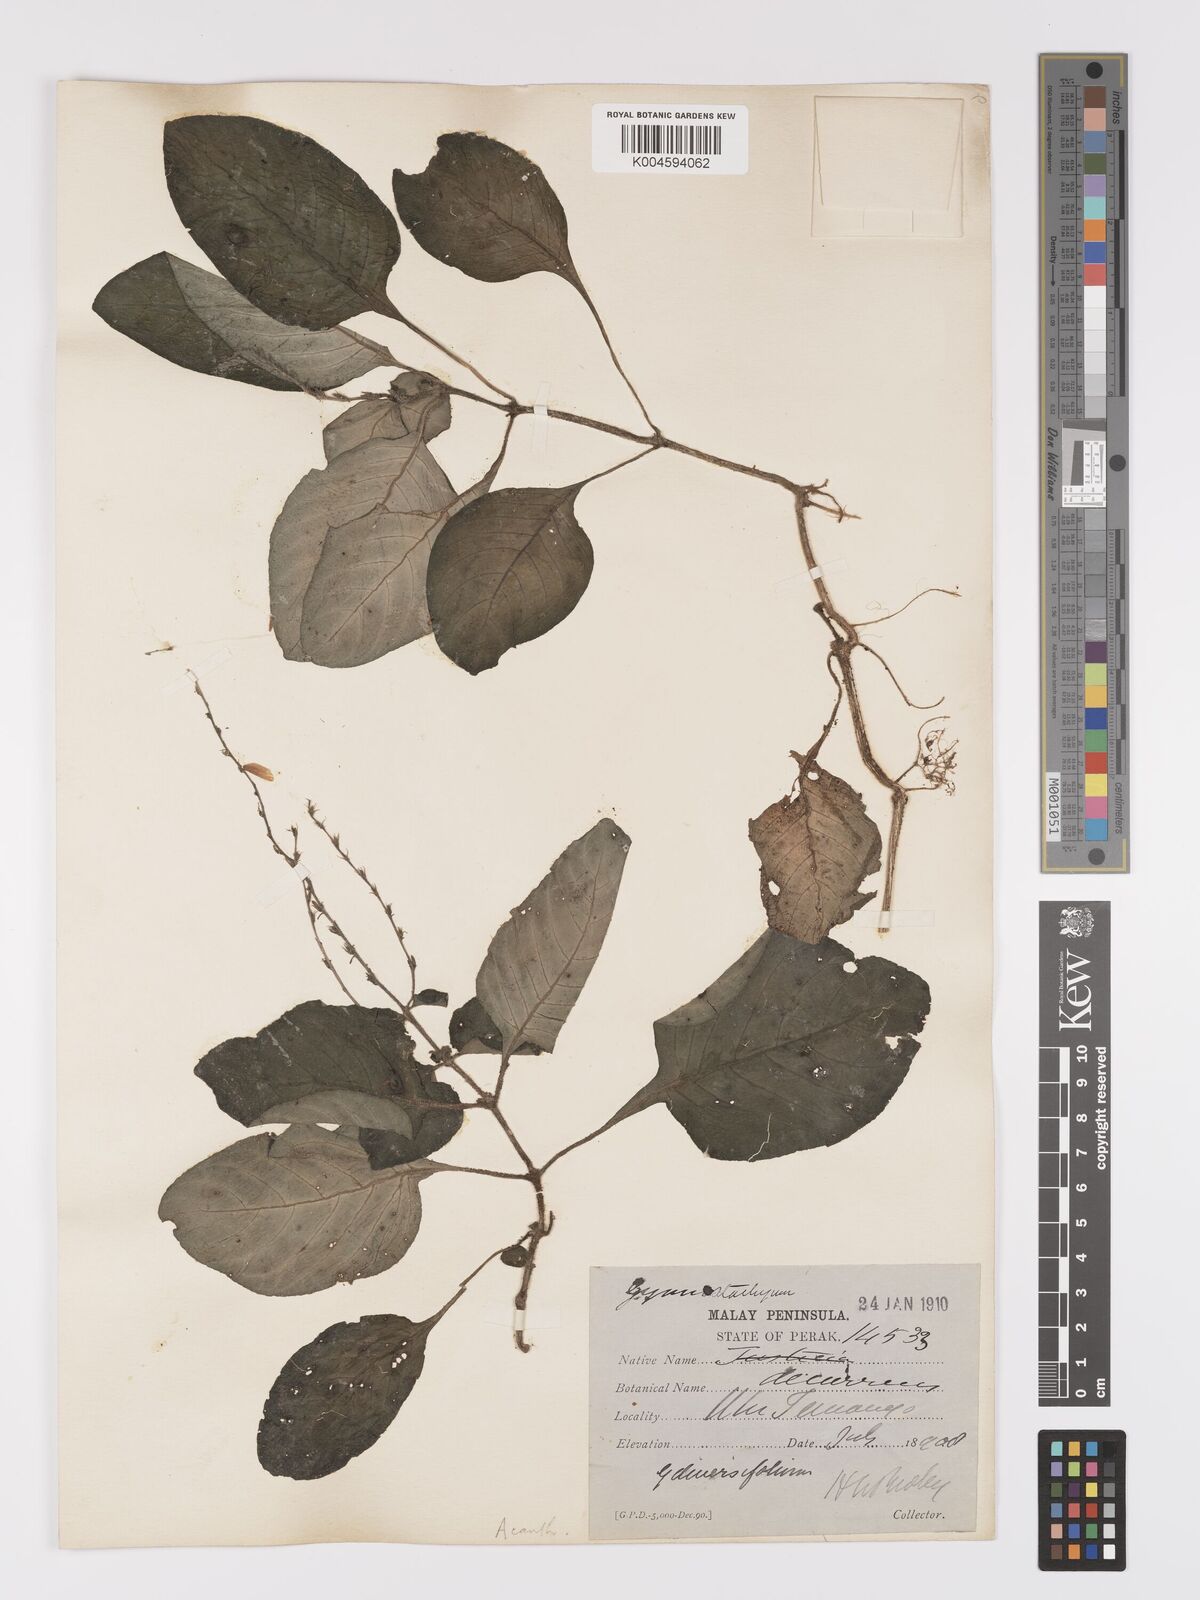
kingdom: Plantae
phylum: Tracheophyta
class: Magnoliopsida
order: Lamiales
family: Acanthaceae
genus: Gymnostachyum
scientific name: Gymnostachyum diversifolium
